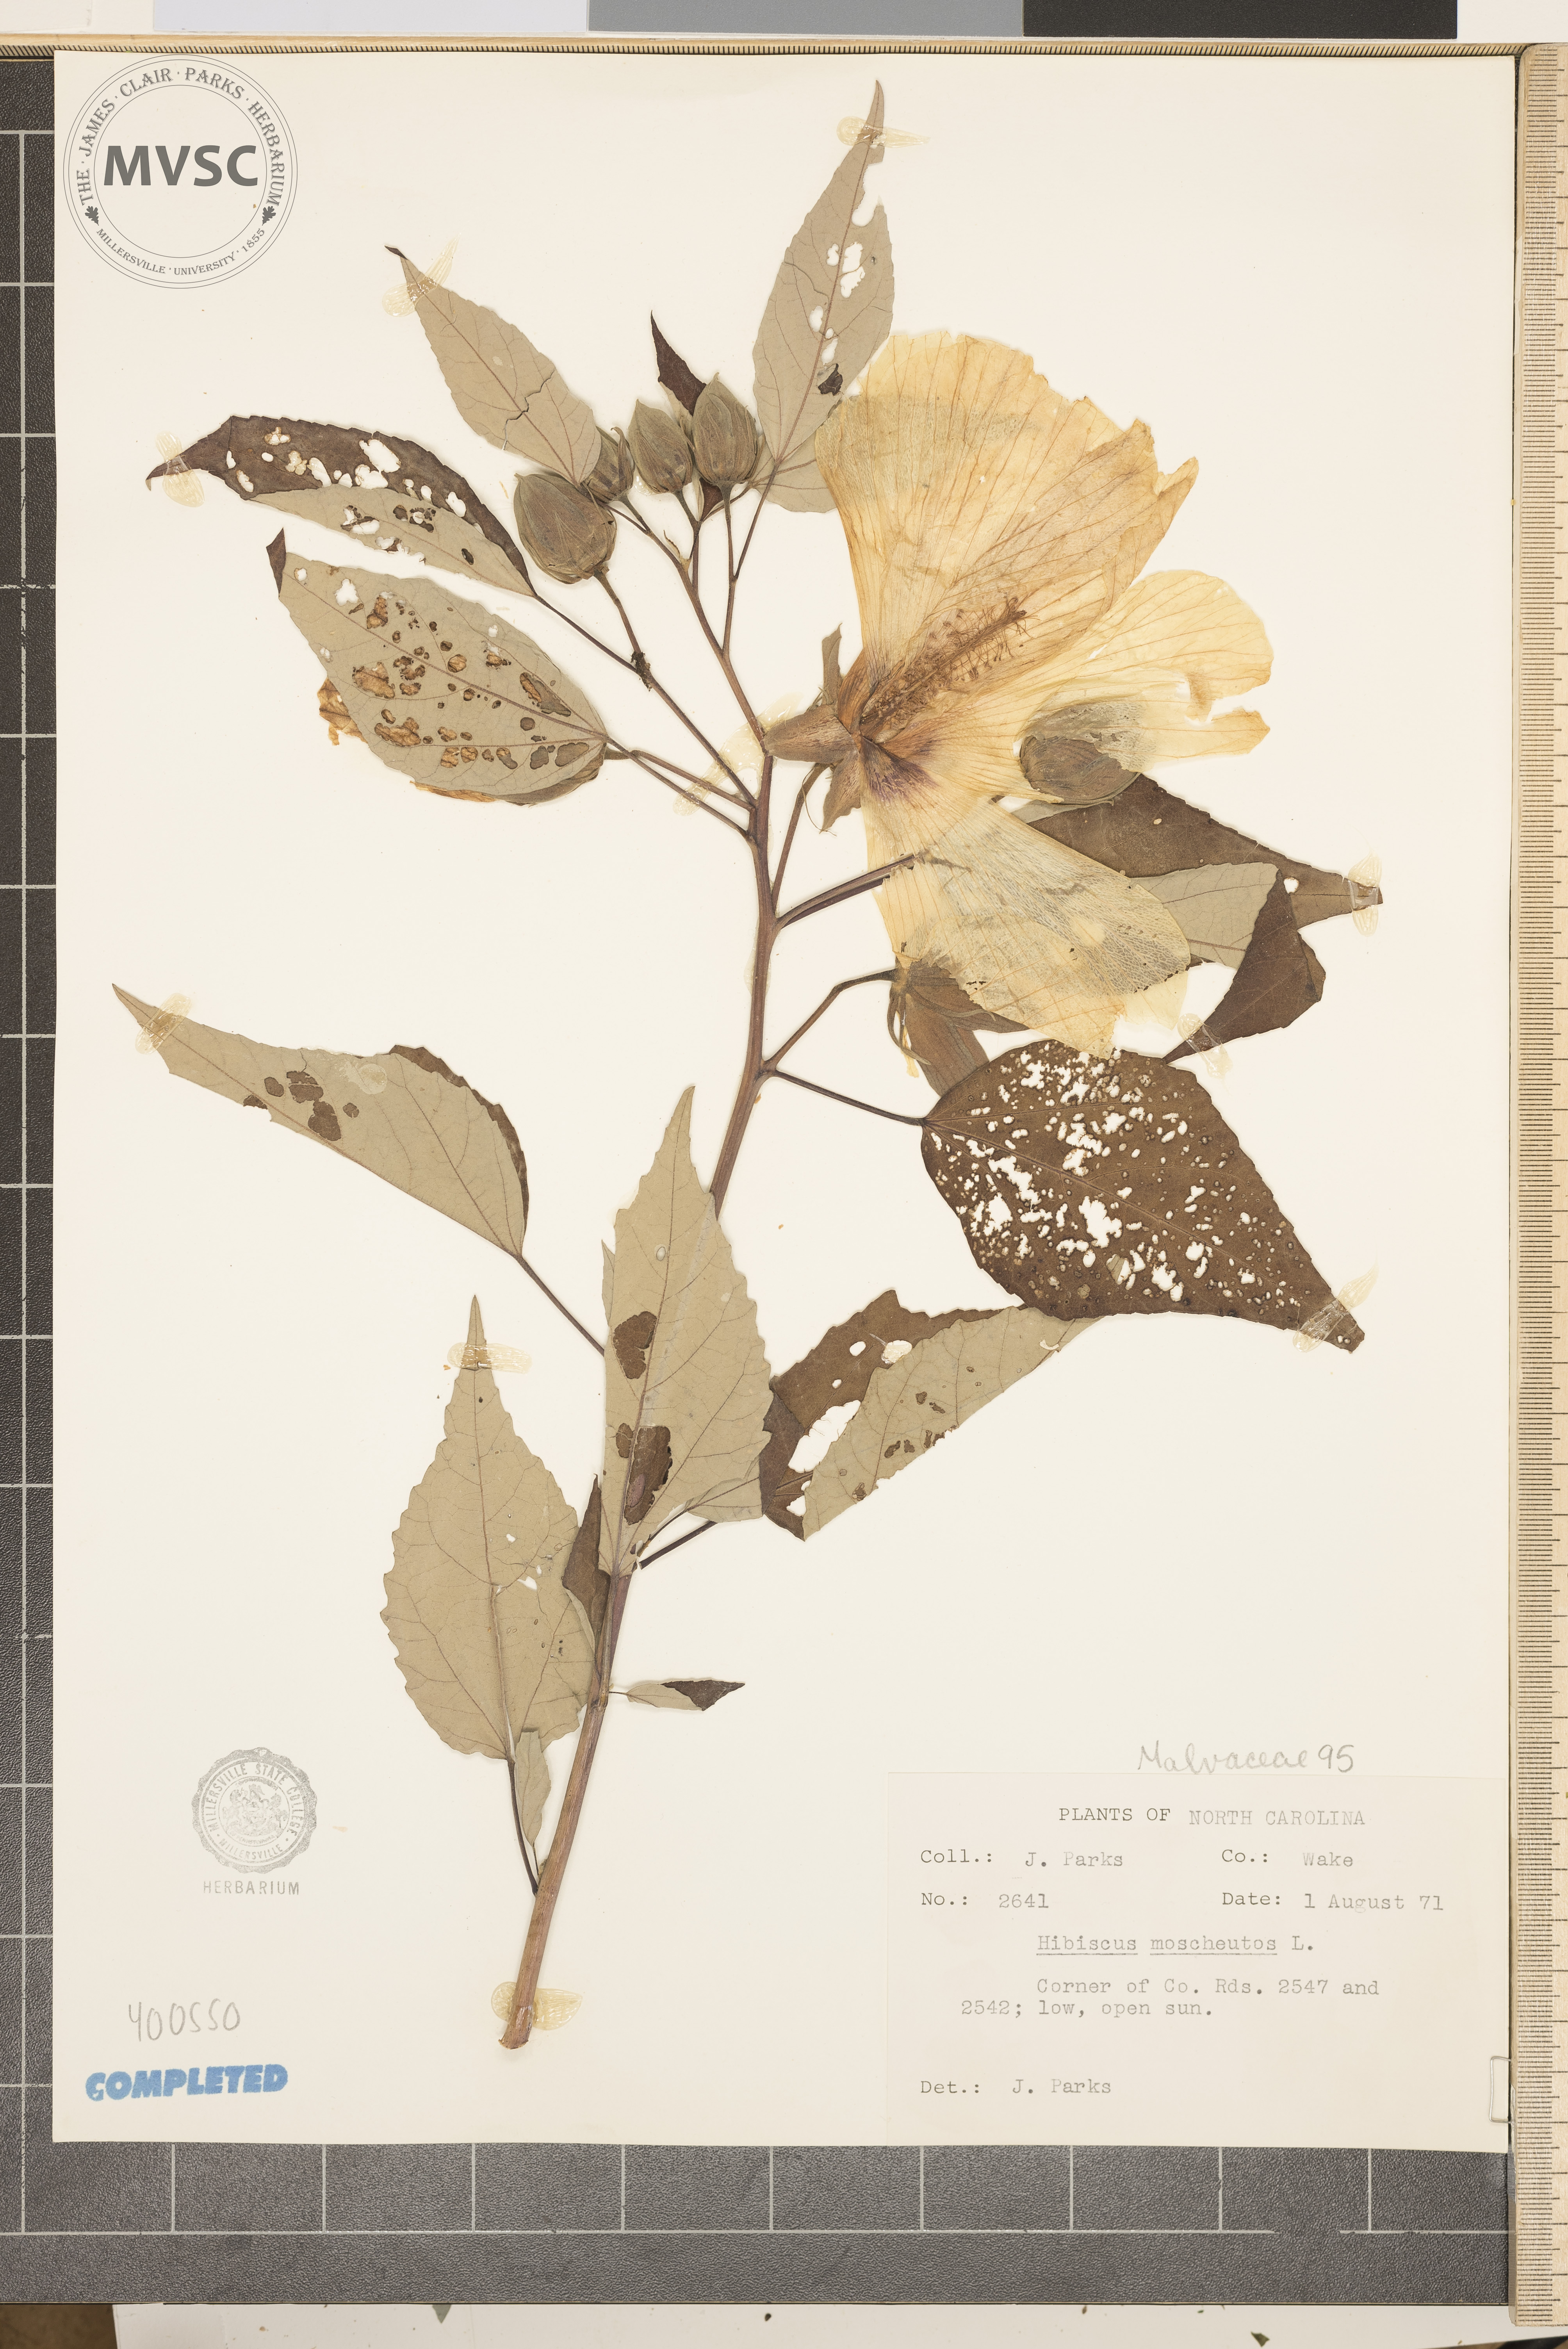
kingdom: Plantae
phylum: Tracheophyta
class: Magnoliopsida
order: Malvales
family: Malvaceae
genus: Hibiscus
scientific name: Hibiscus moscheutos
